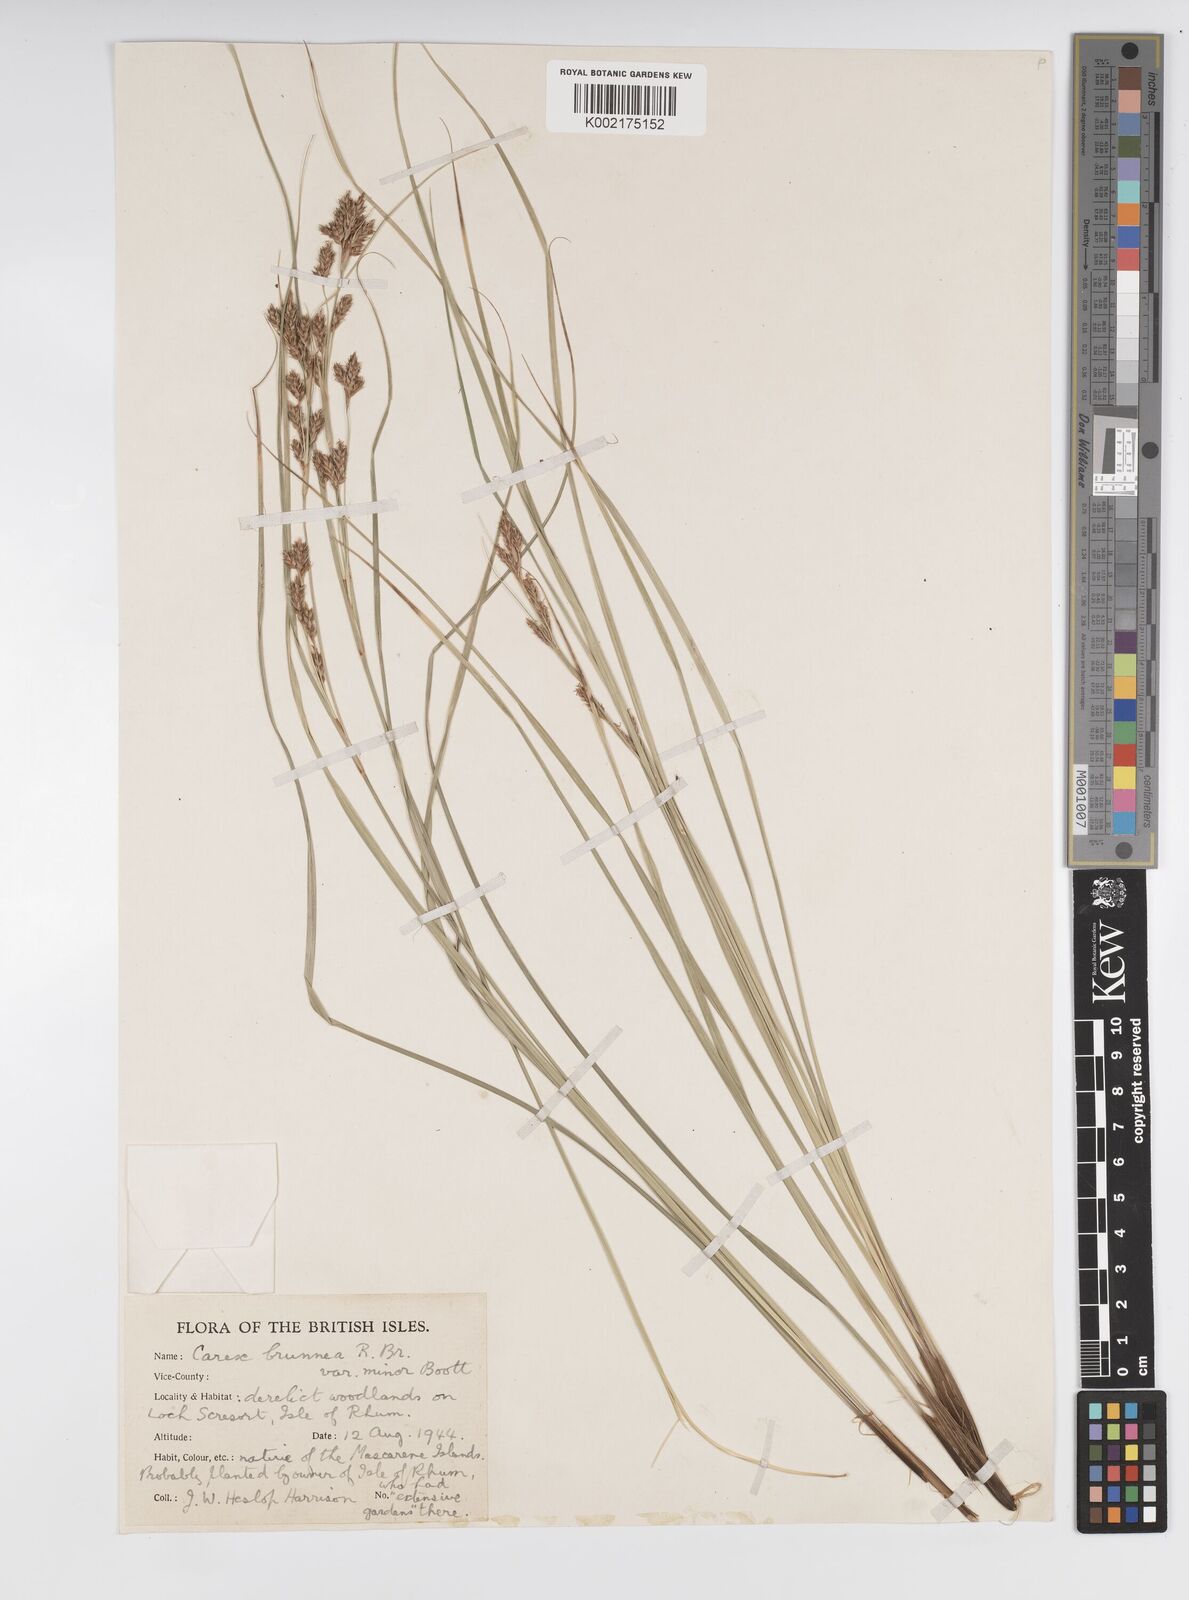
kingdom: Plantae
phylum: Tracheophyta
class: Liliopsida
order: Poales
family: Cyperaceae
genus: Carex
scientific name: Carex brunnea
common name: Greater brown sedge
